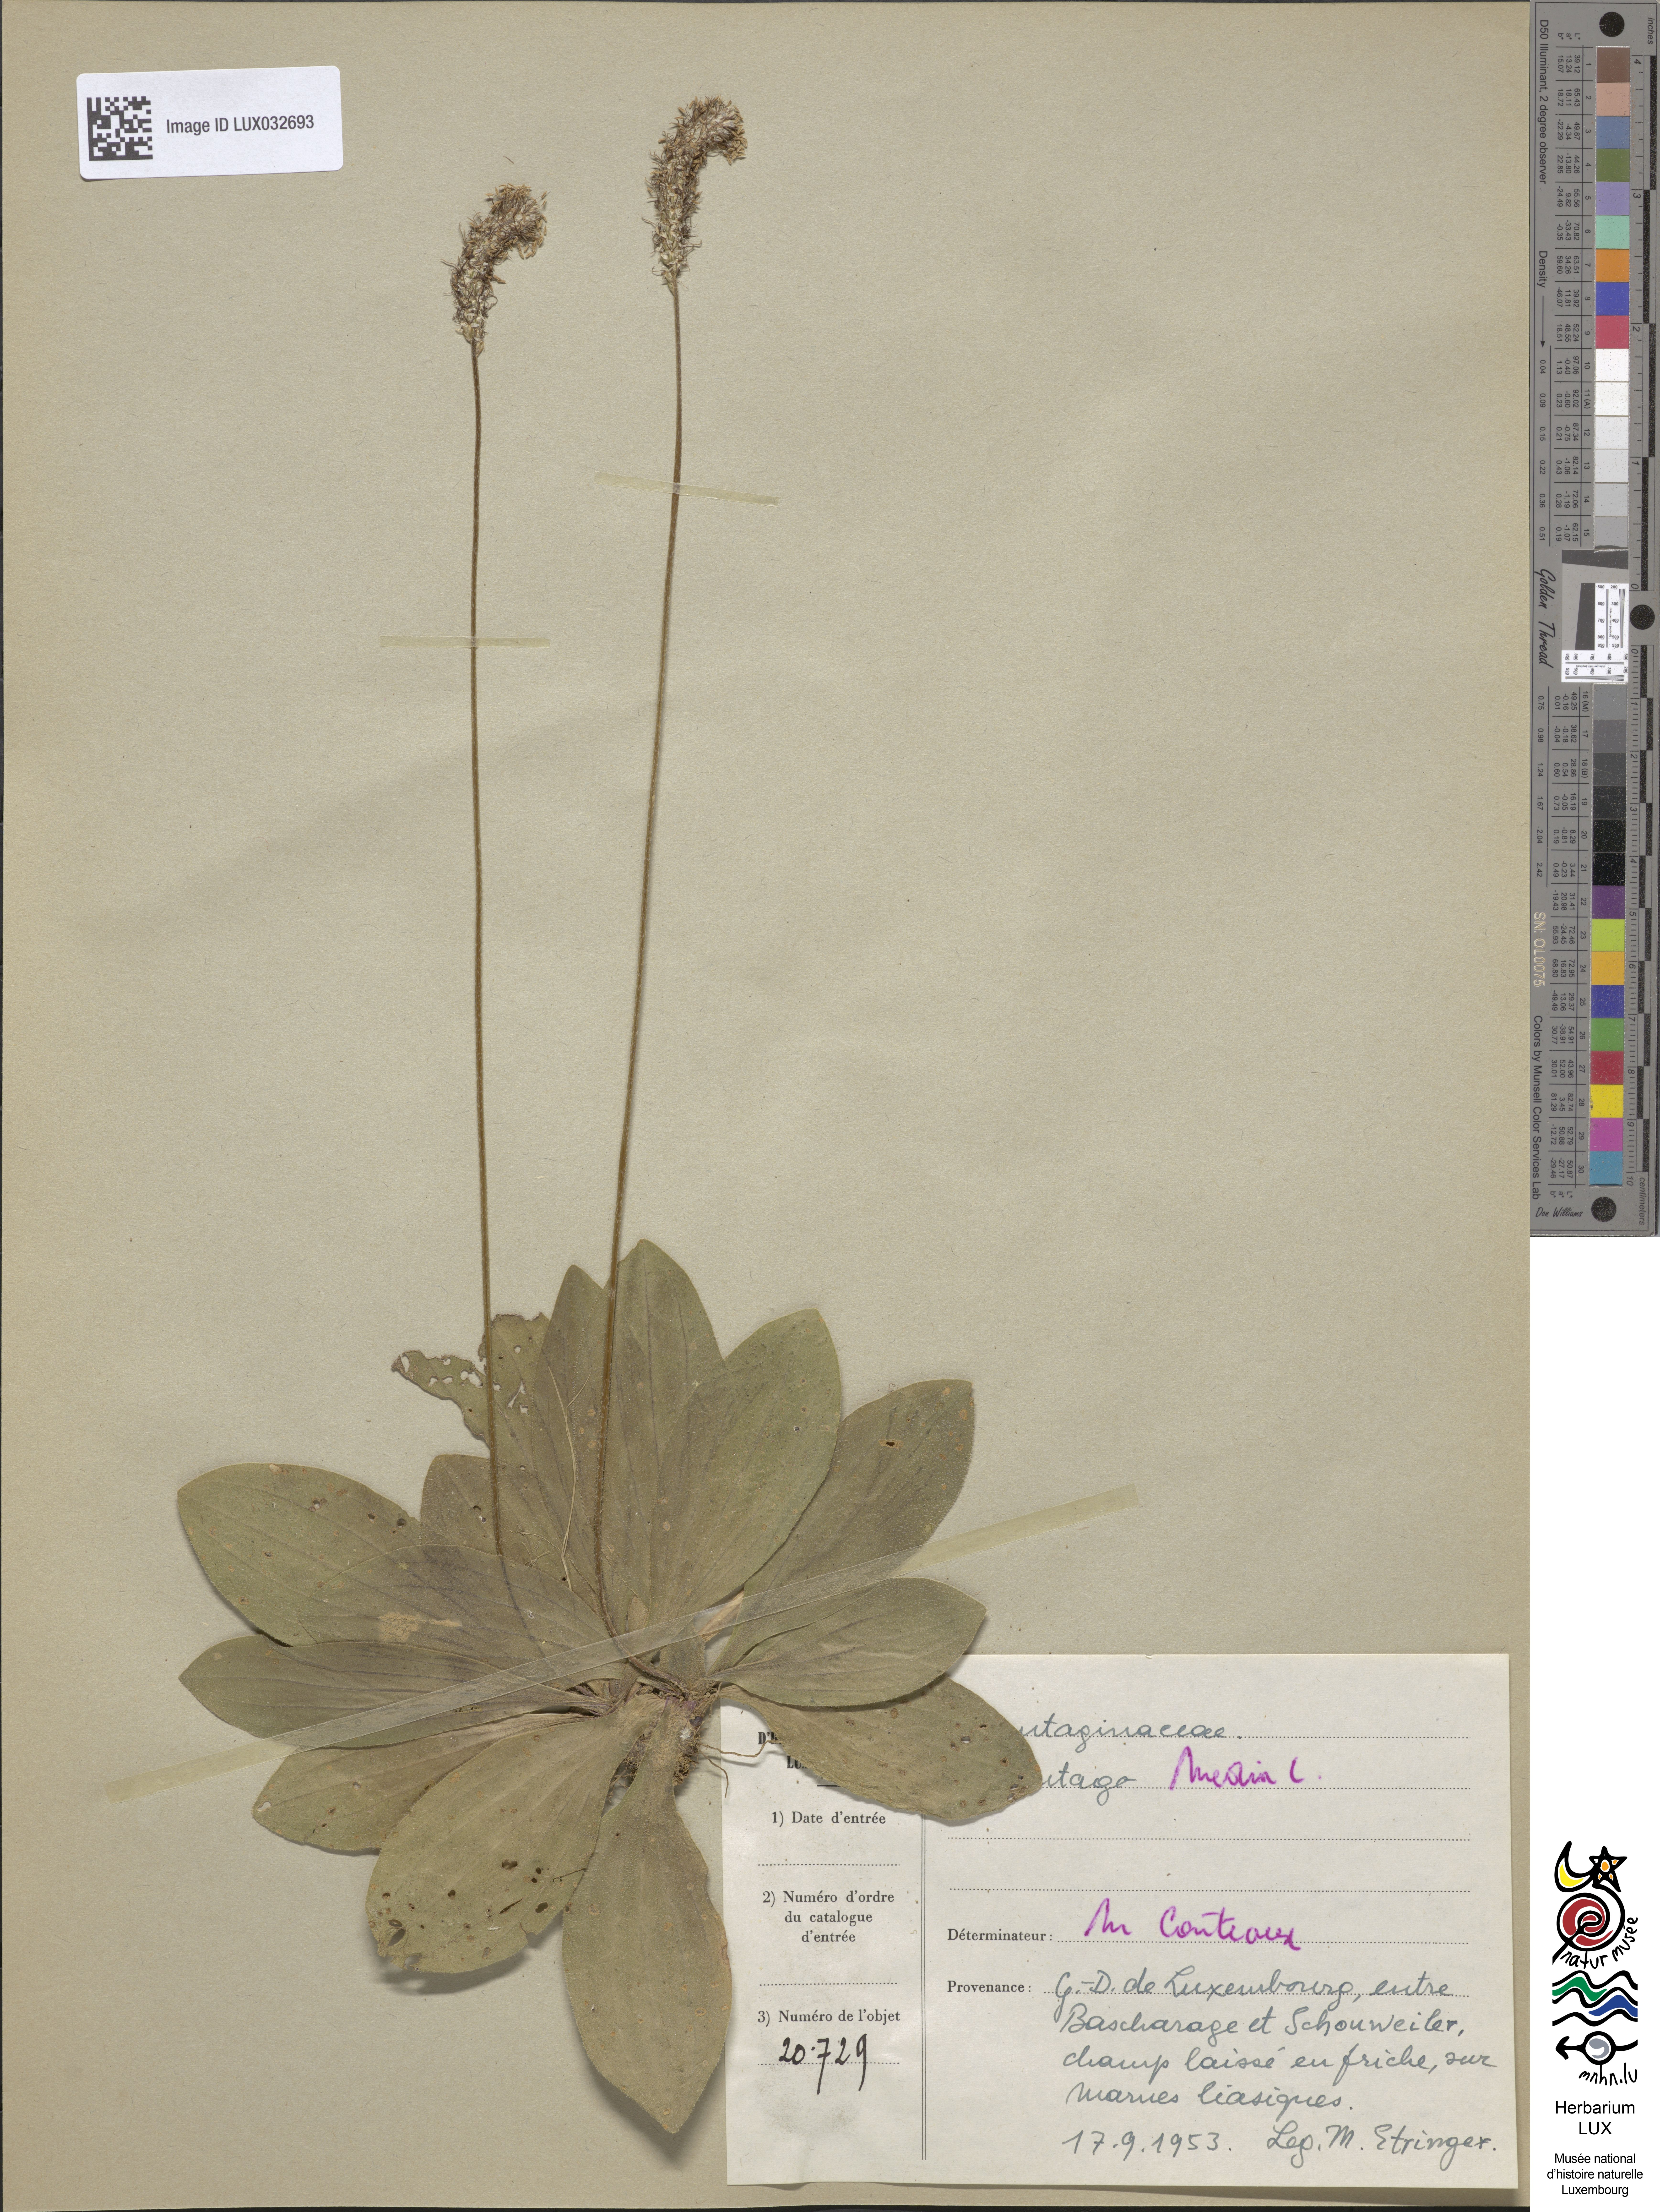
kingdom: Plantae
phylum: Tracheophyta
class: Magnoliopsida
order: Lamiales
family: Plantaginaceae
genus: Plantago
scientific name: Plantago media
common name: Hoary plantain
